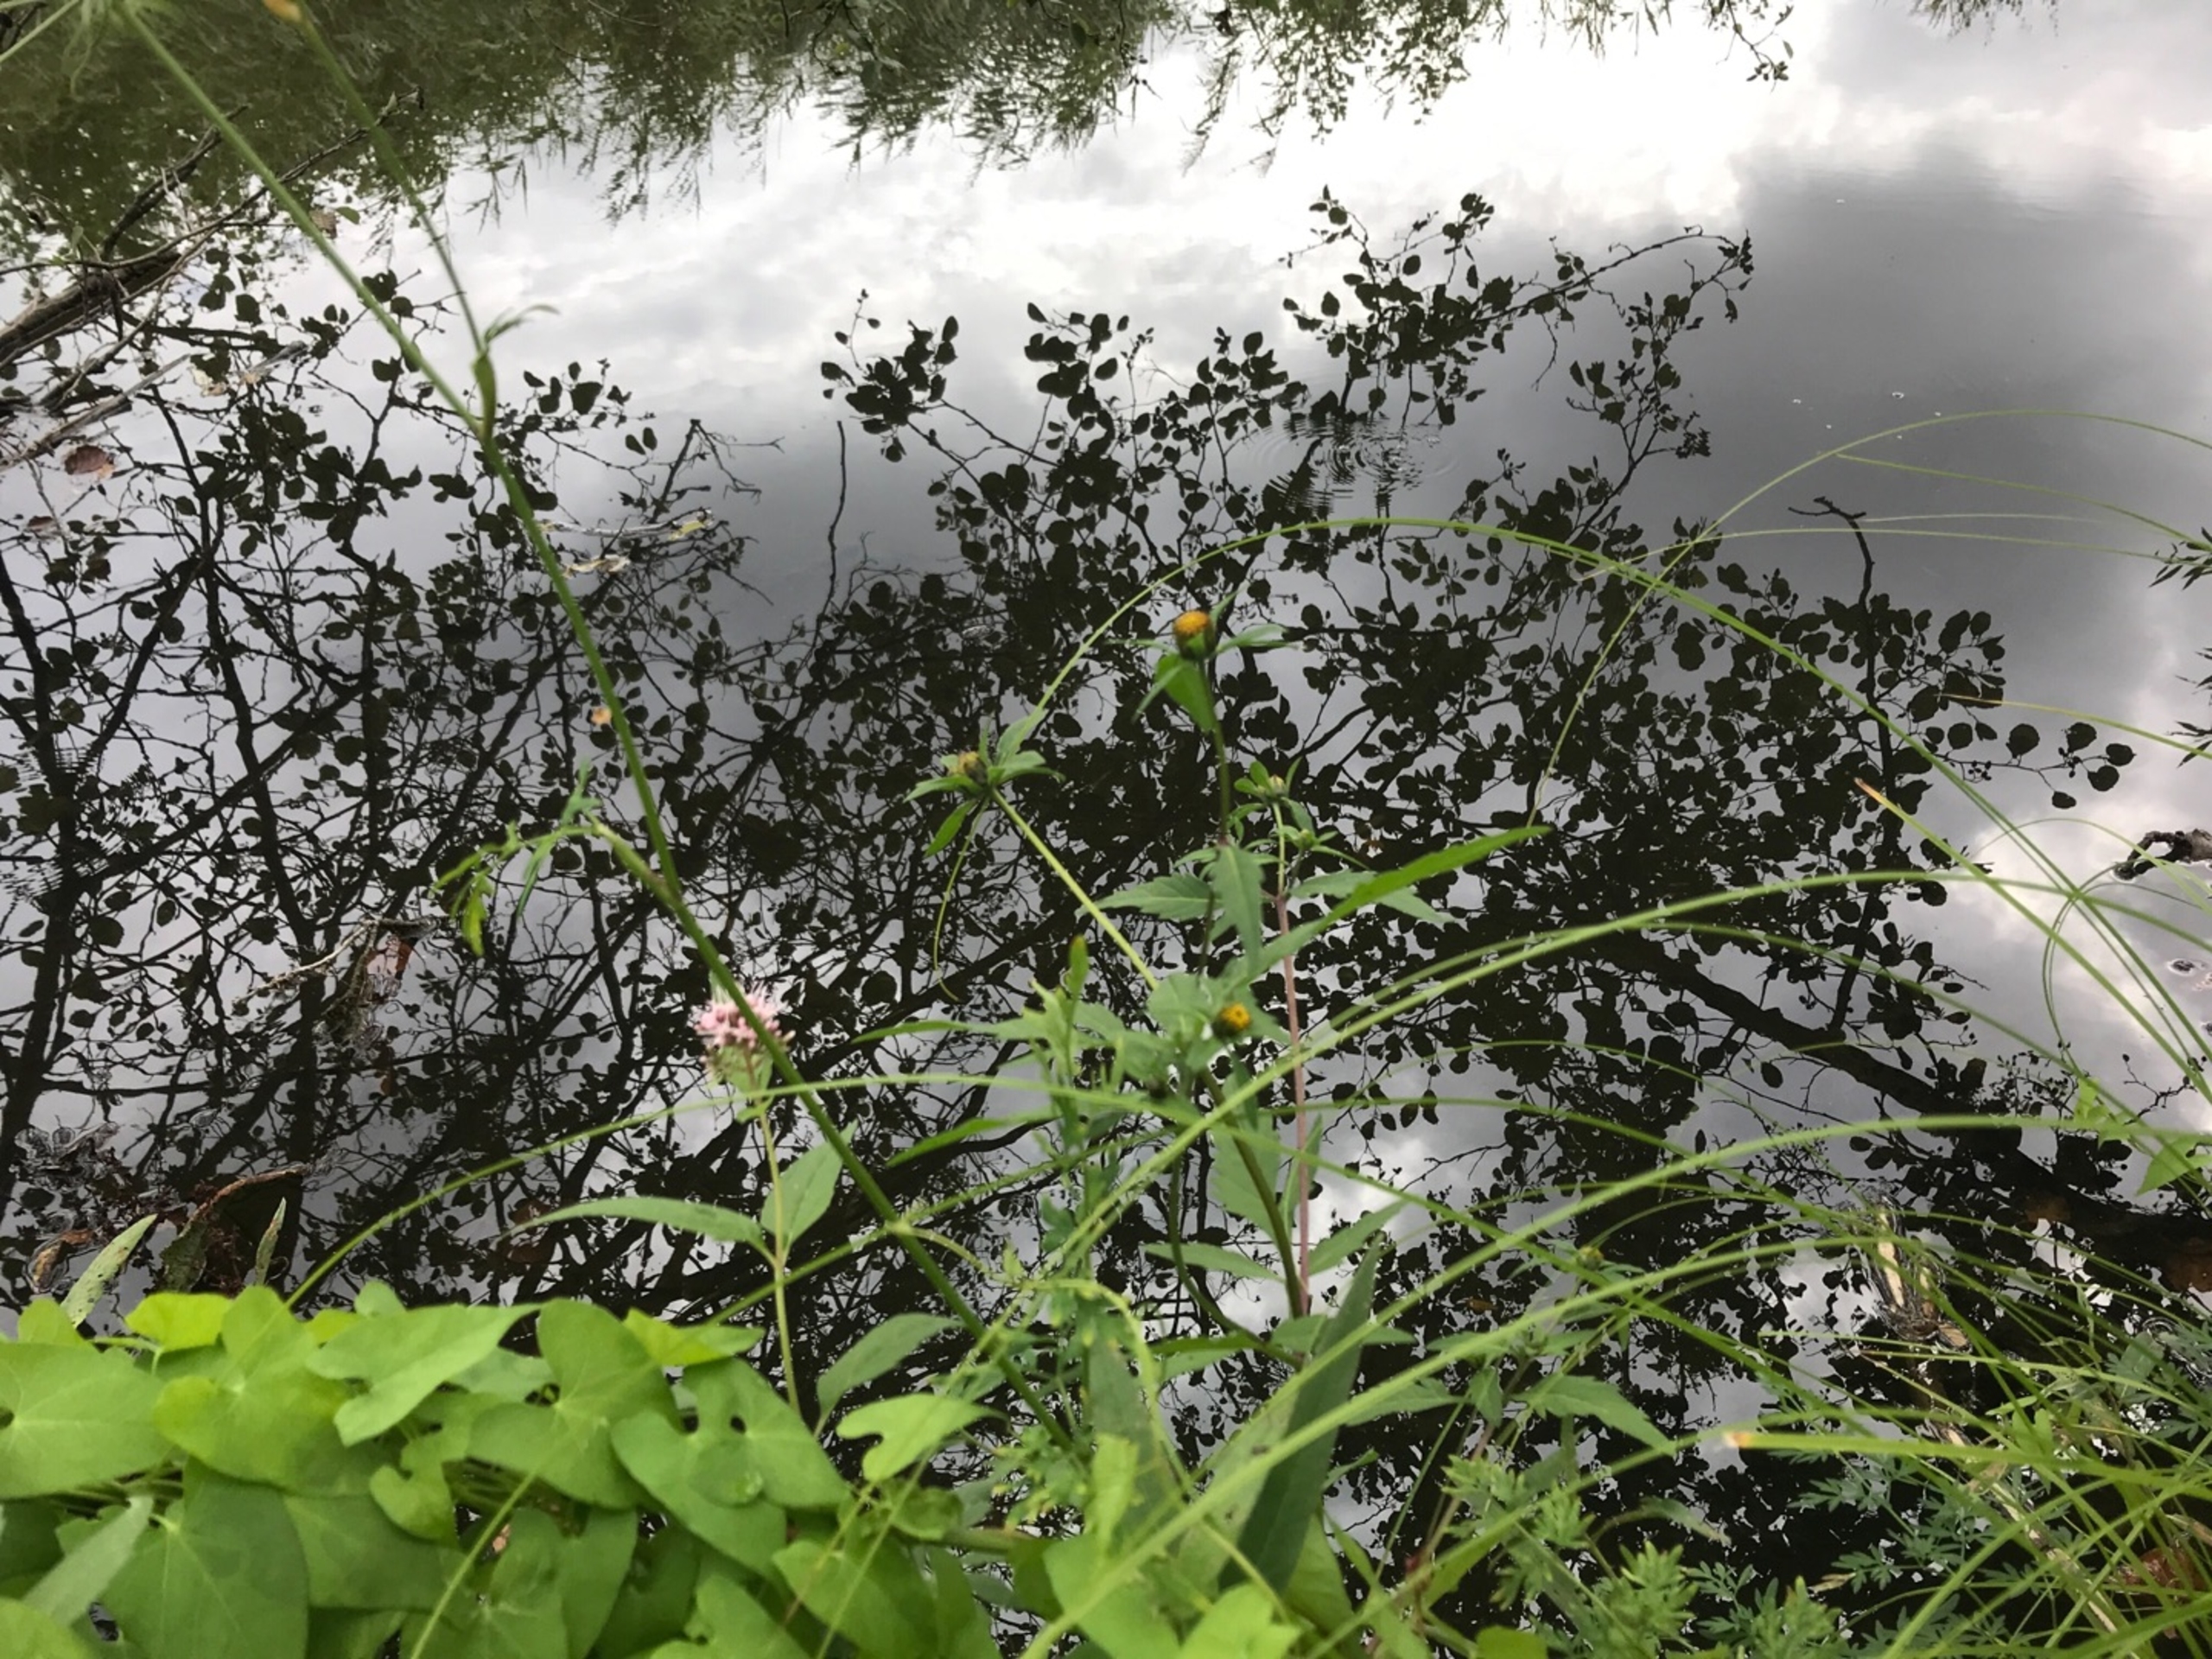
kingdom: Plantae
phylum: Tracheophyta
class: Magnoliopsida
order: Asterales
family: Asteraceae
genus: Bidens
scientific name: Bidens tripartita
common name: Fliget brøndsel
